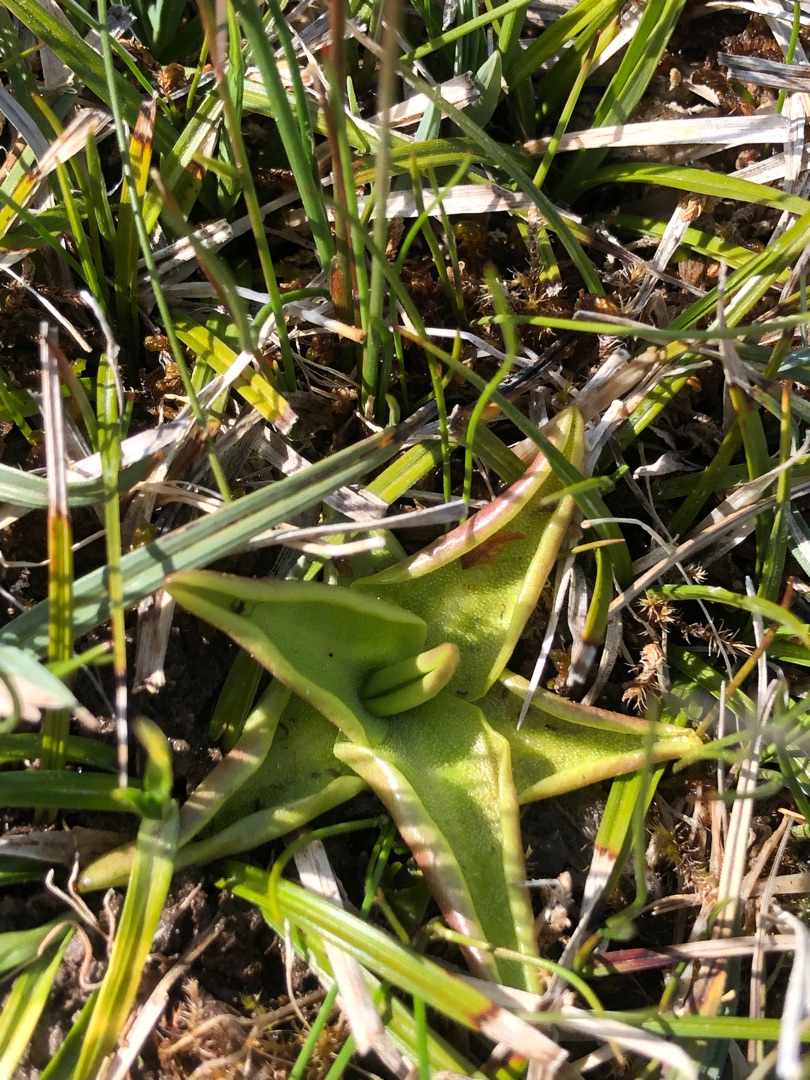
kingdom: Plantae
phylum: Tracheophyta
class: Magnoliopsida
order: Lamiales
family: Lentibulariaceae
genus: Pinguicula
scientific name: Pinguicula vulgaris
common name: Vibefedt
